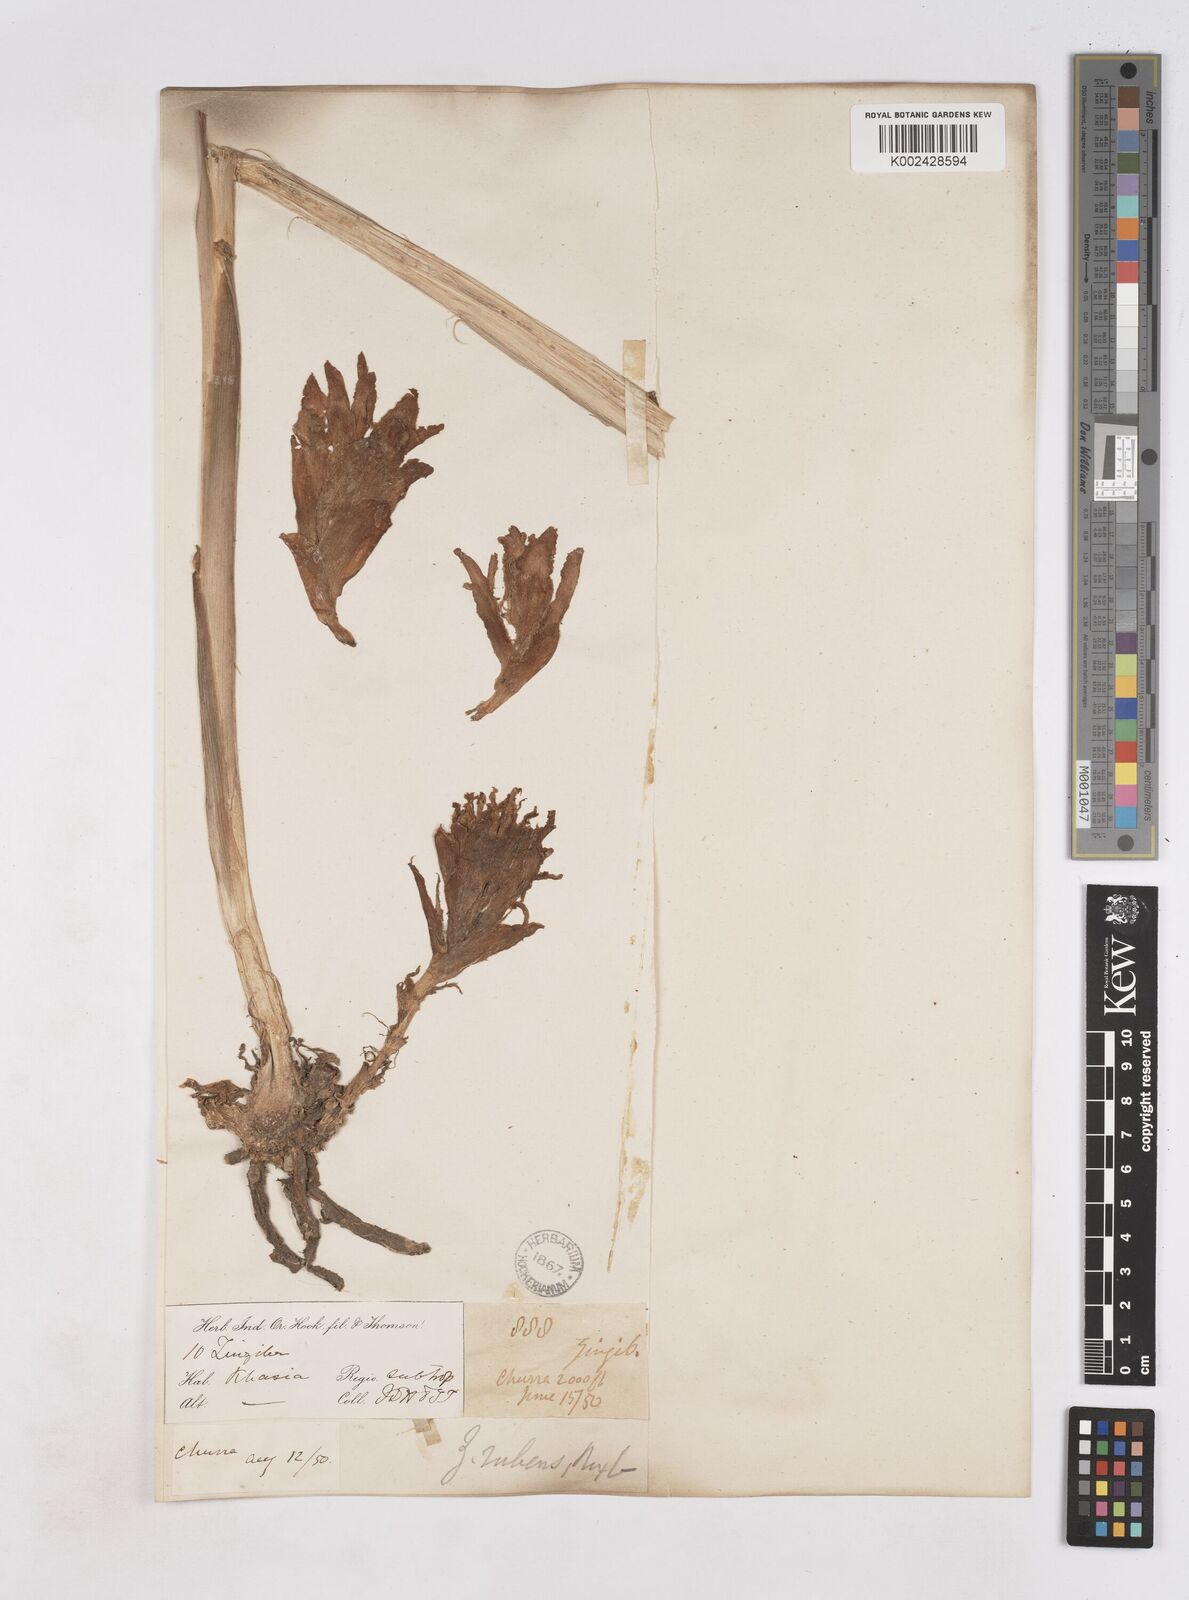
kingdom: Plantae
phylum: Tracheophyta
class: Liliopsida
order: Zingiberales
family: Zingiberaceae
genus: Zingiber
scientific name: Zingiber rubens
